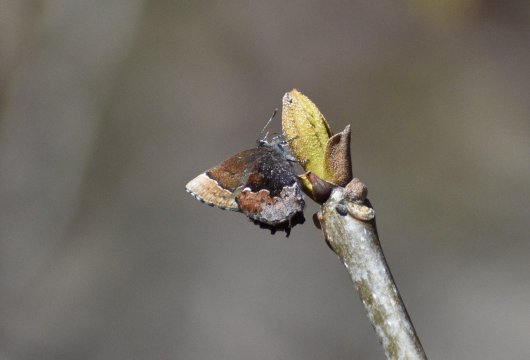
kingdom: Animalia
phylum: Arthropoda
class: Insecta
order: Lepidoptera
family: Lycaenidae
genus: Incisalia
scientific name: Incisalia henrici
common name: Henry's Elfin
